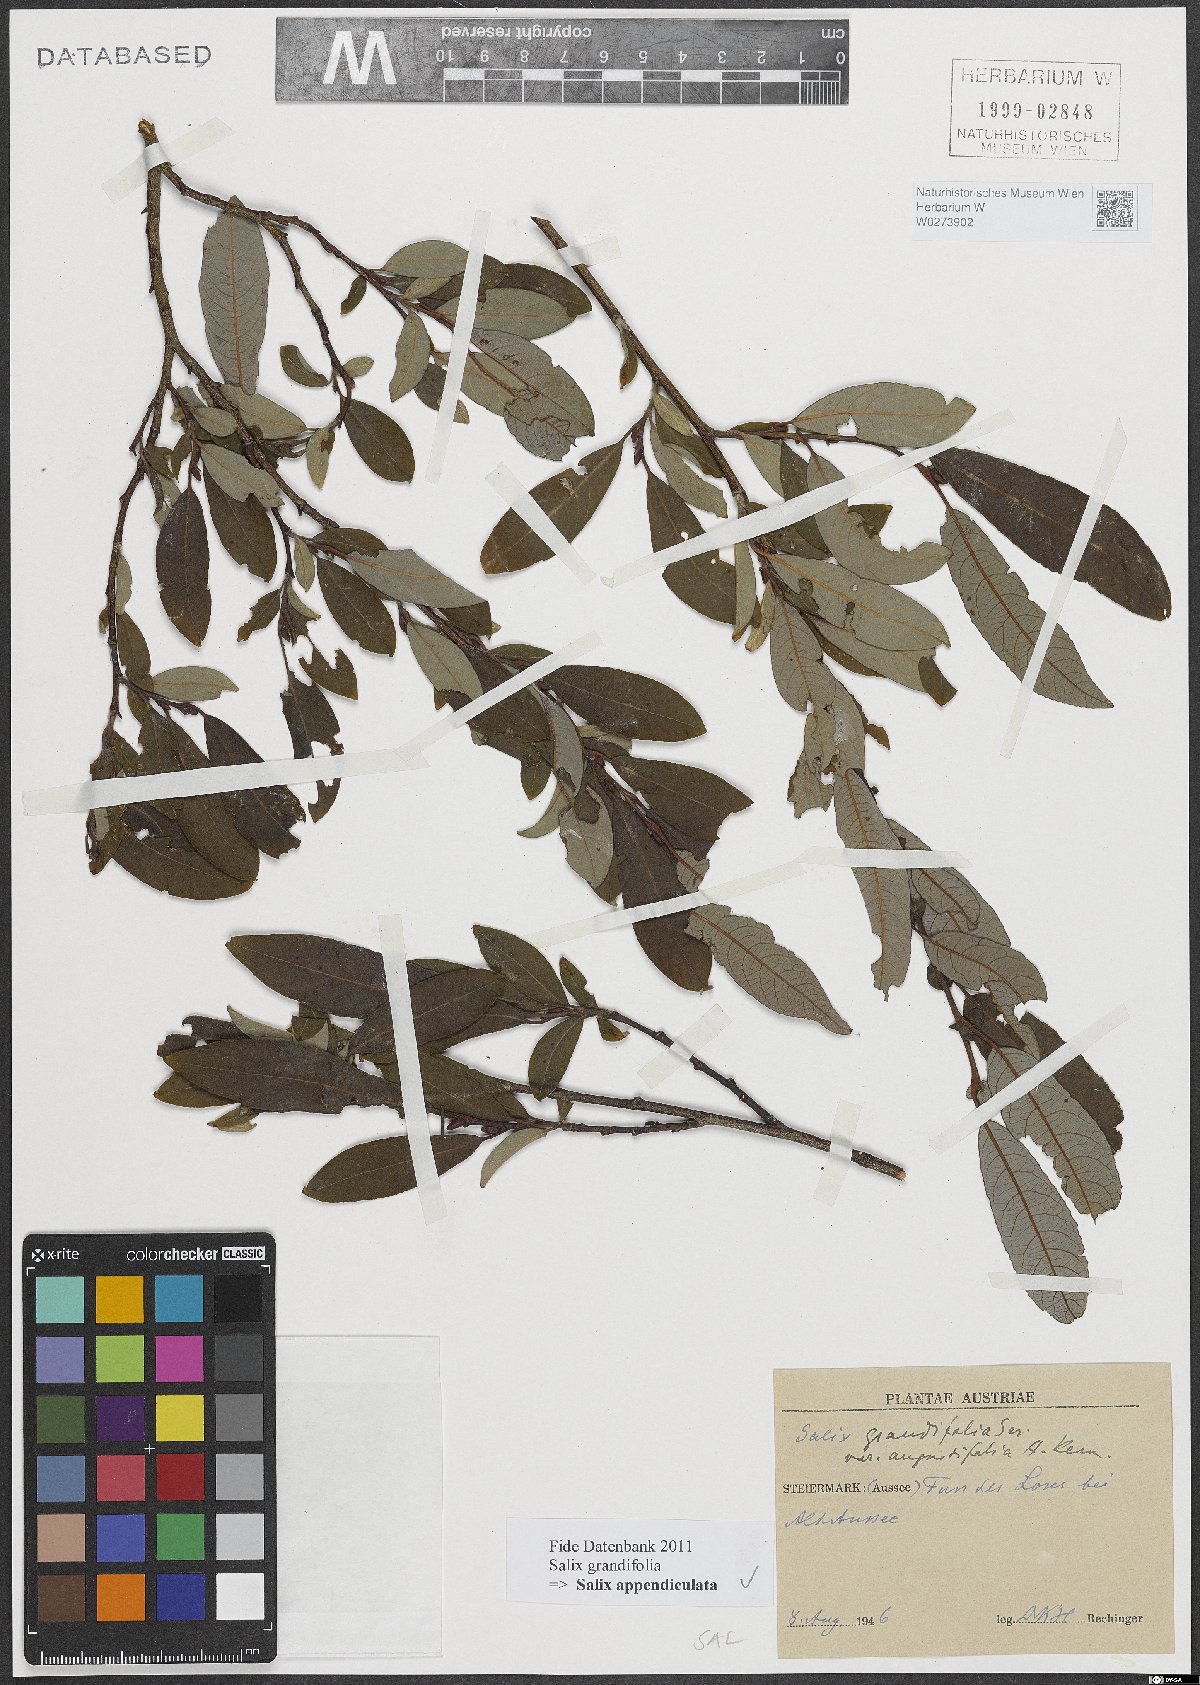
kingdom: Plantae
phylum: Tracheophyta
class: Magnoliopsida
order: Malpighiales
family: Salicaceae
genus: Salix
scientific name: Salix appendiculata
